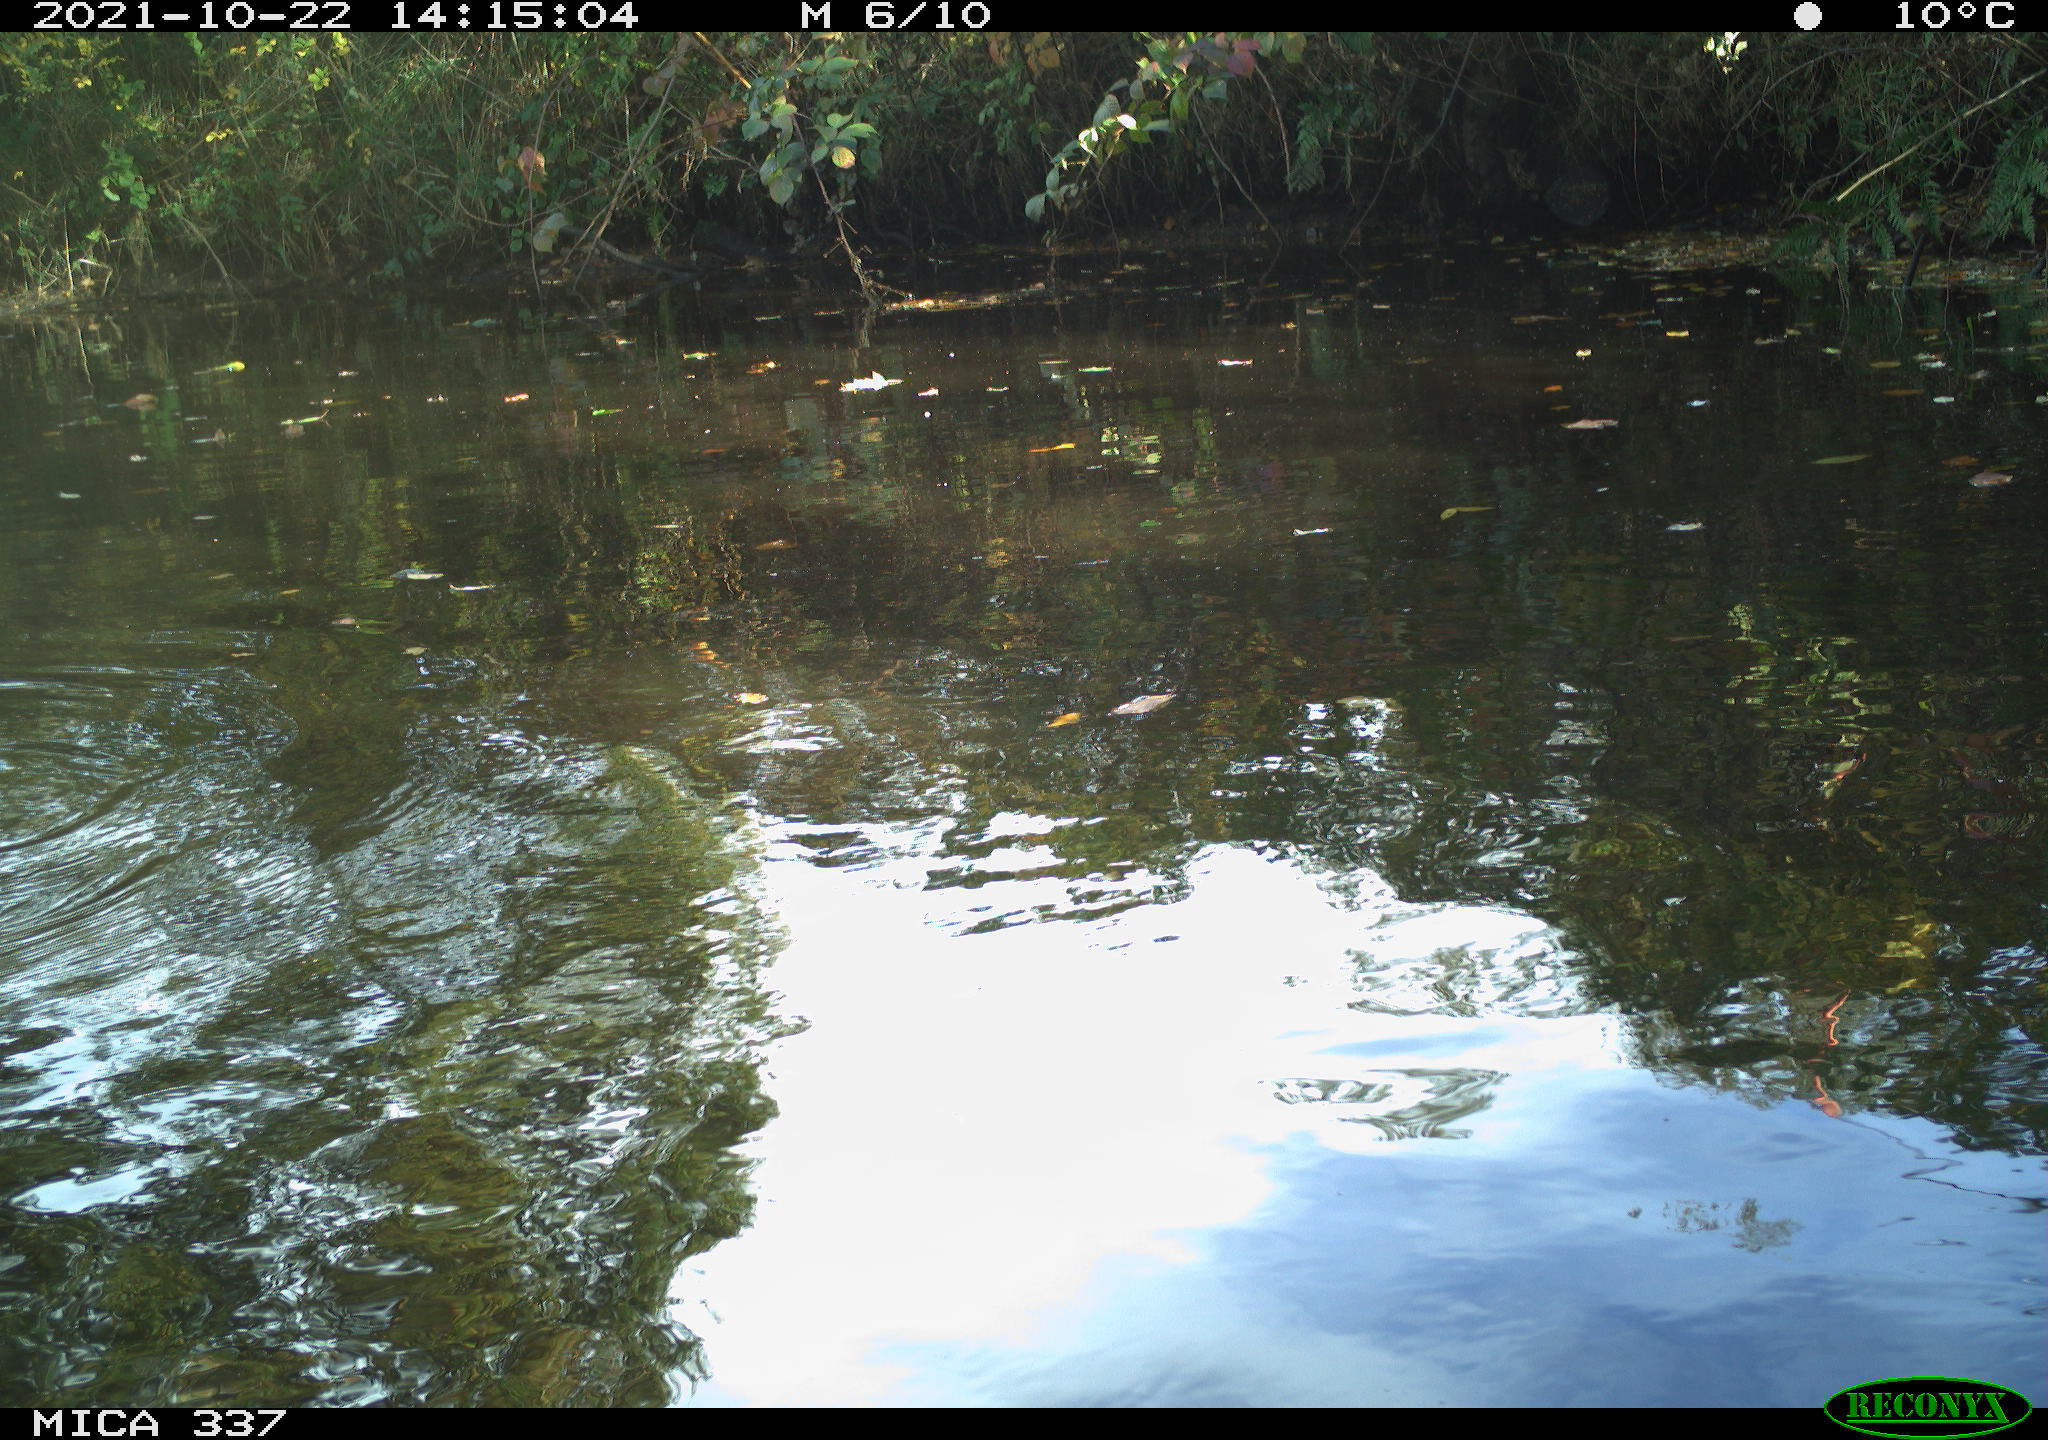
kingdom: Animalia
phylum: Chordata
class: Aves
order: Anseriformes
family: Anatidae
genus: Anas
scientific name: Anas platyrhynchos
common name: Mallard
